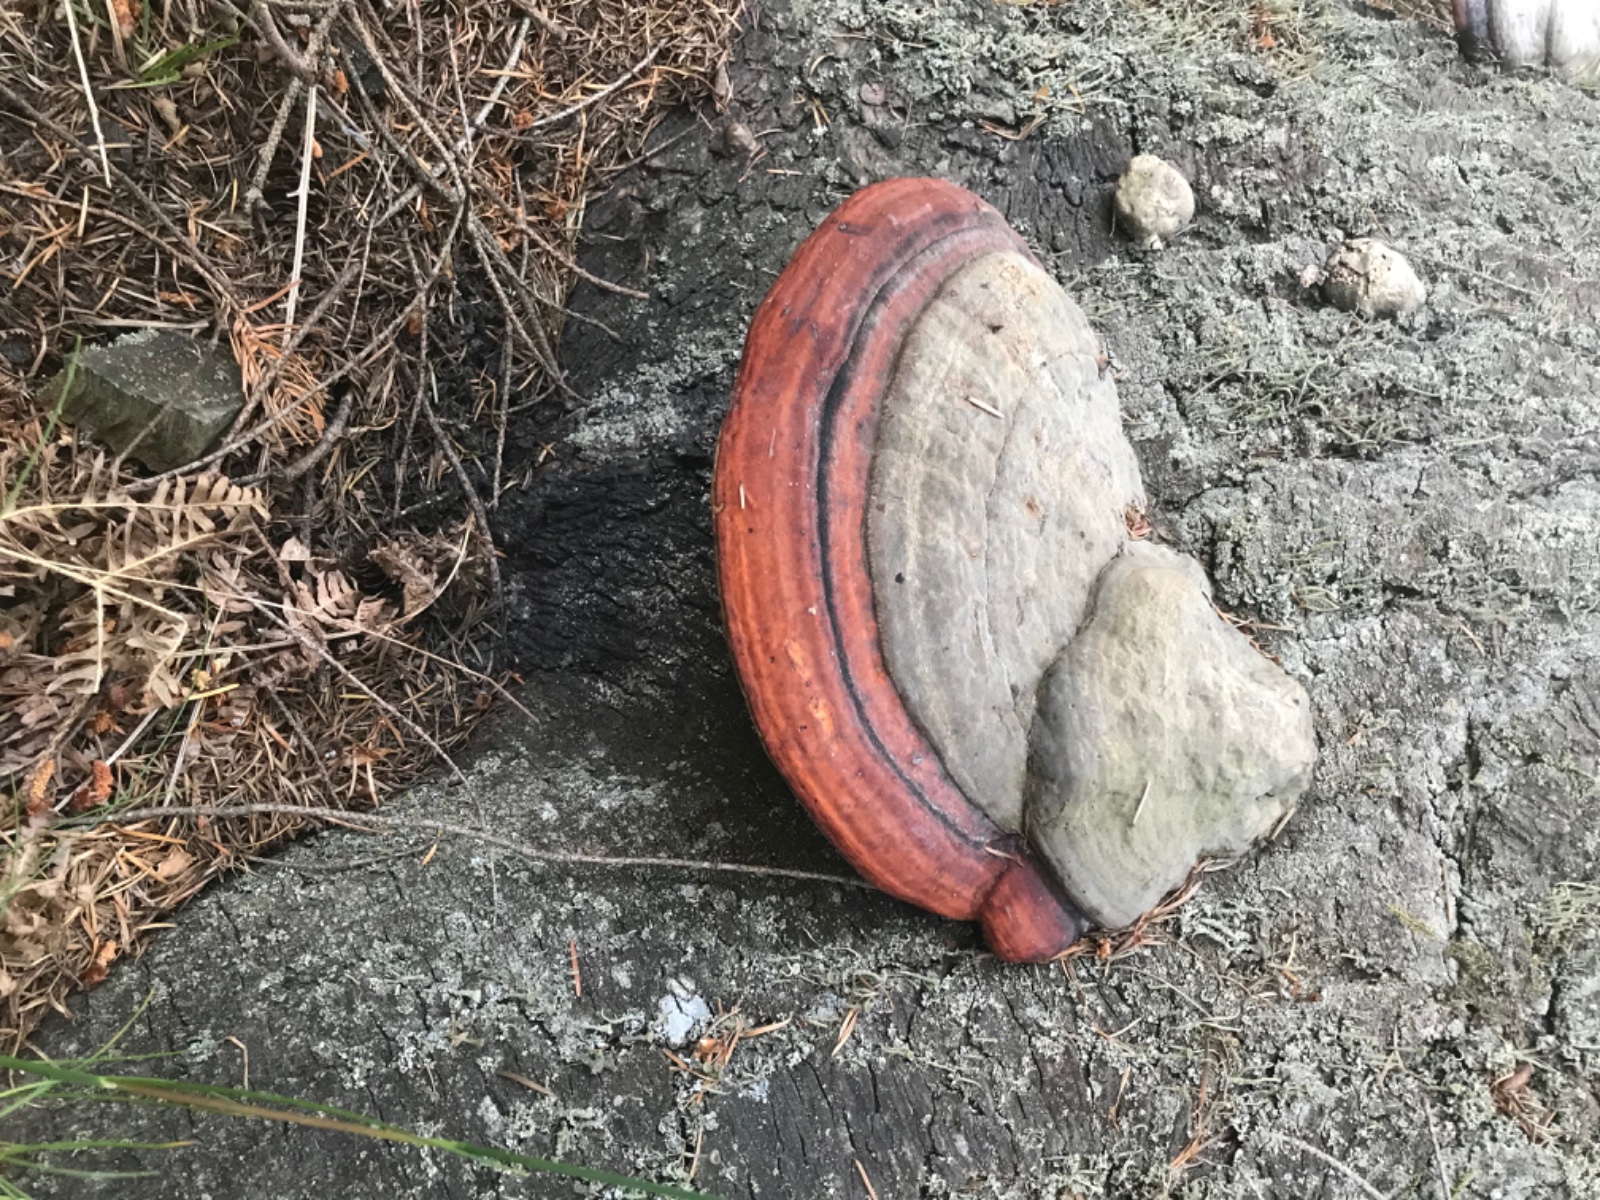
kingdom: Fungi
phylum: Basidiomycota
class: Agaricomycetes
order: Polyporales
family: Fomitopsidaceae
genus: Fomitopsis
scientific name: Fomitopsis pinicola
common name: randbæltet hovporesvamp
